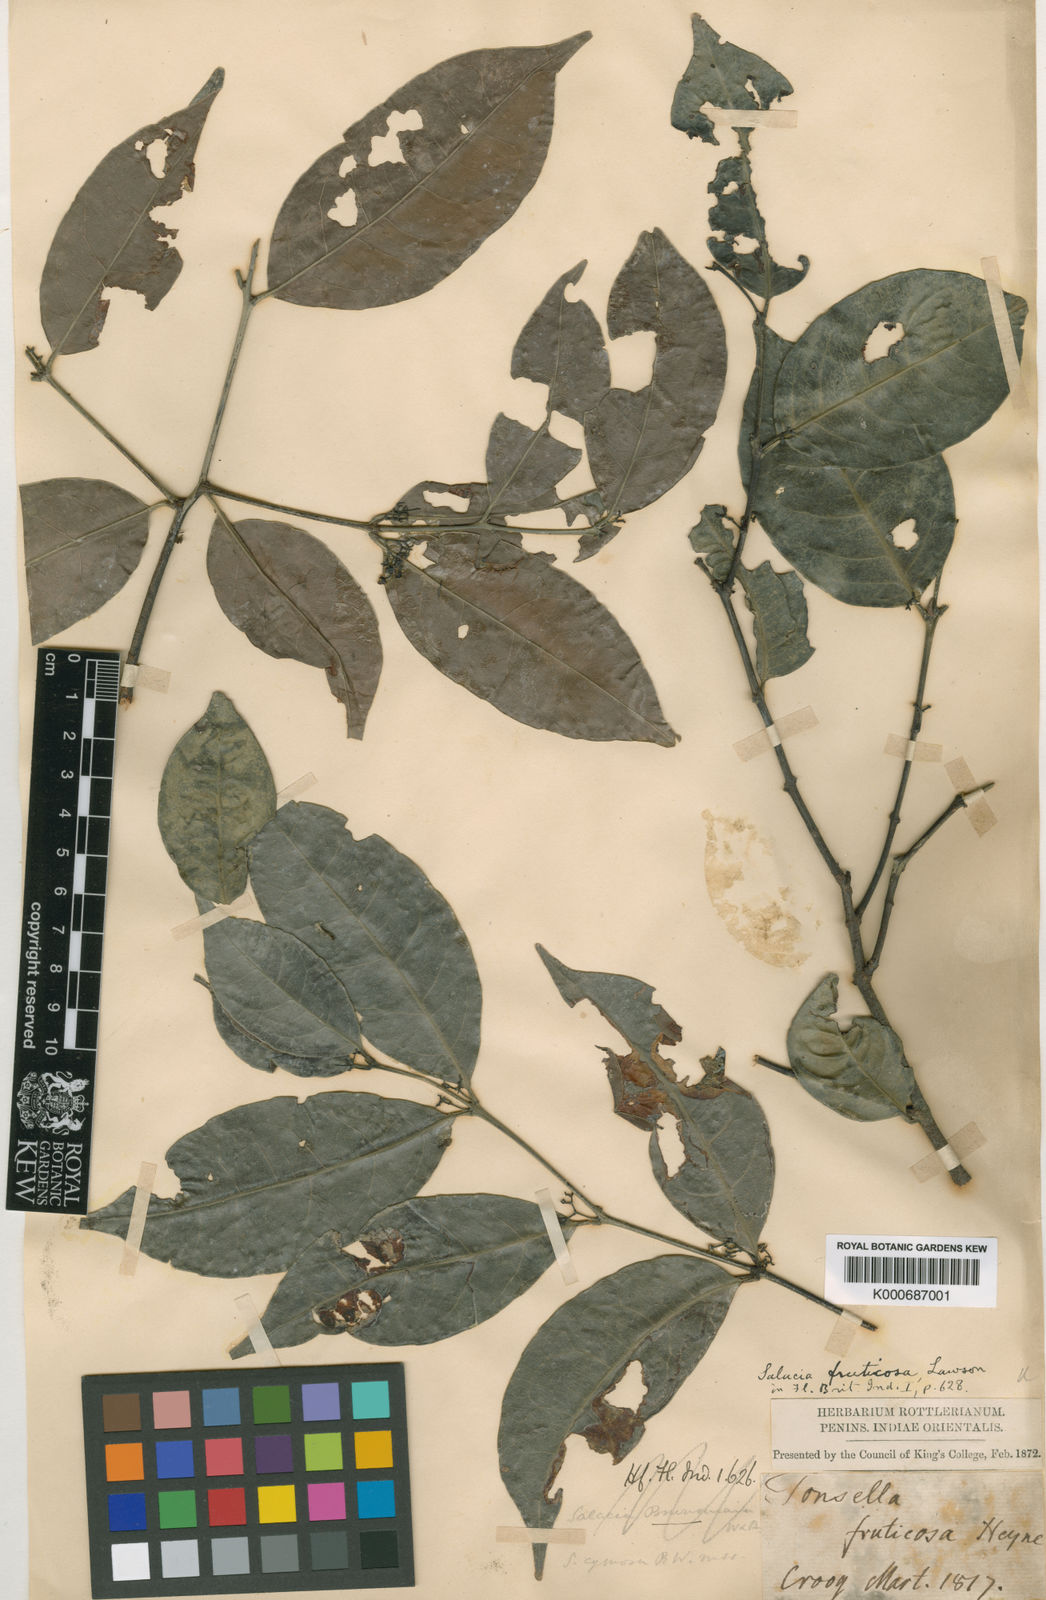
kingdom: Plantae
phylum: Tracheophyta
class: Magnoliopsida
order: Celastrales
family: Celastraceae
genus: Salacia
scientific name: Salacia fruticosa
